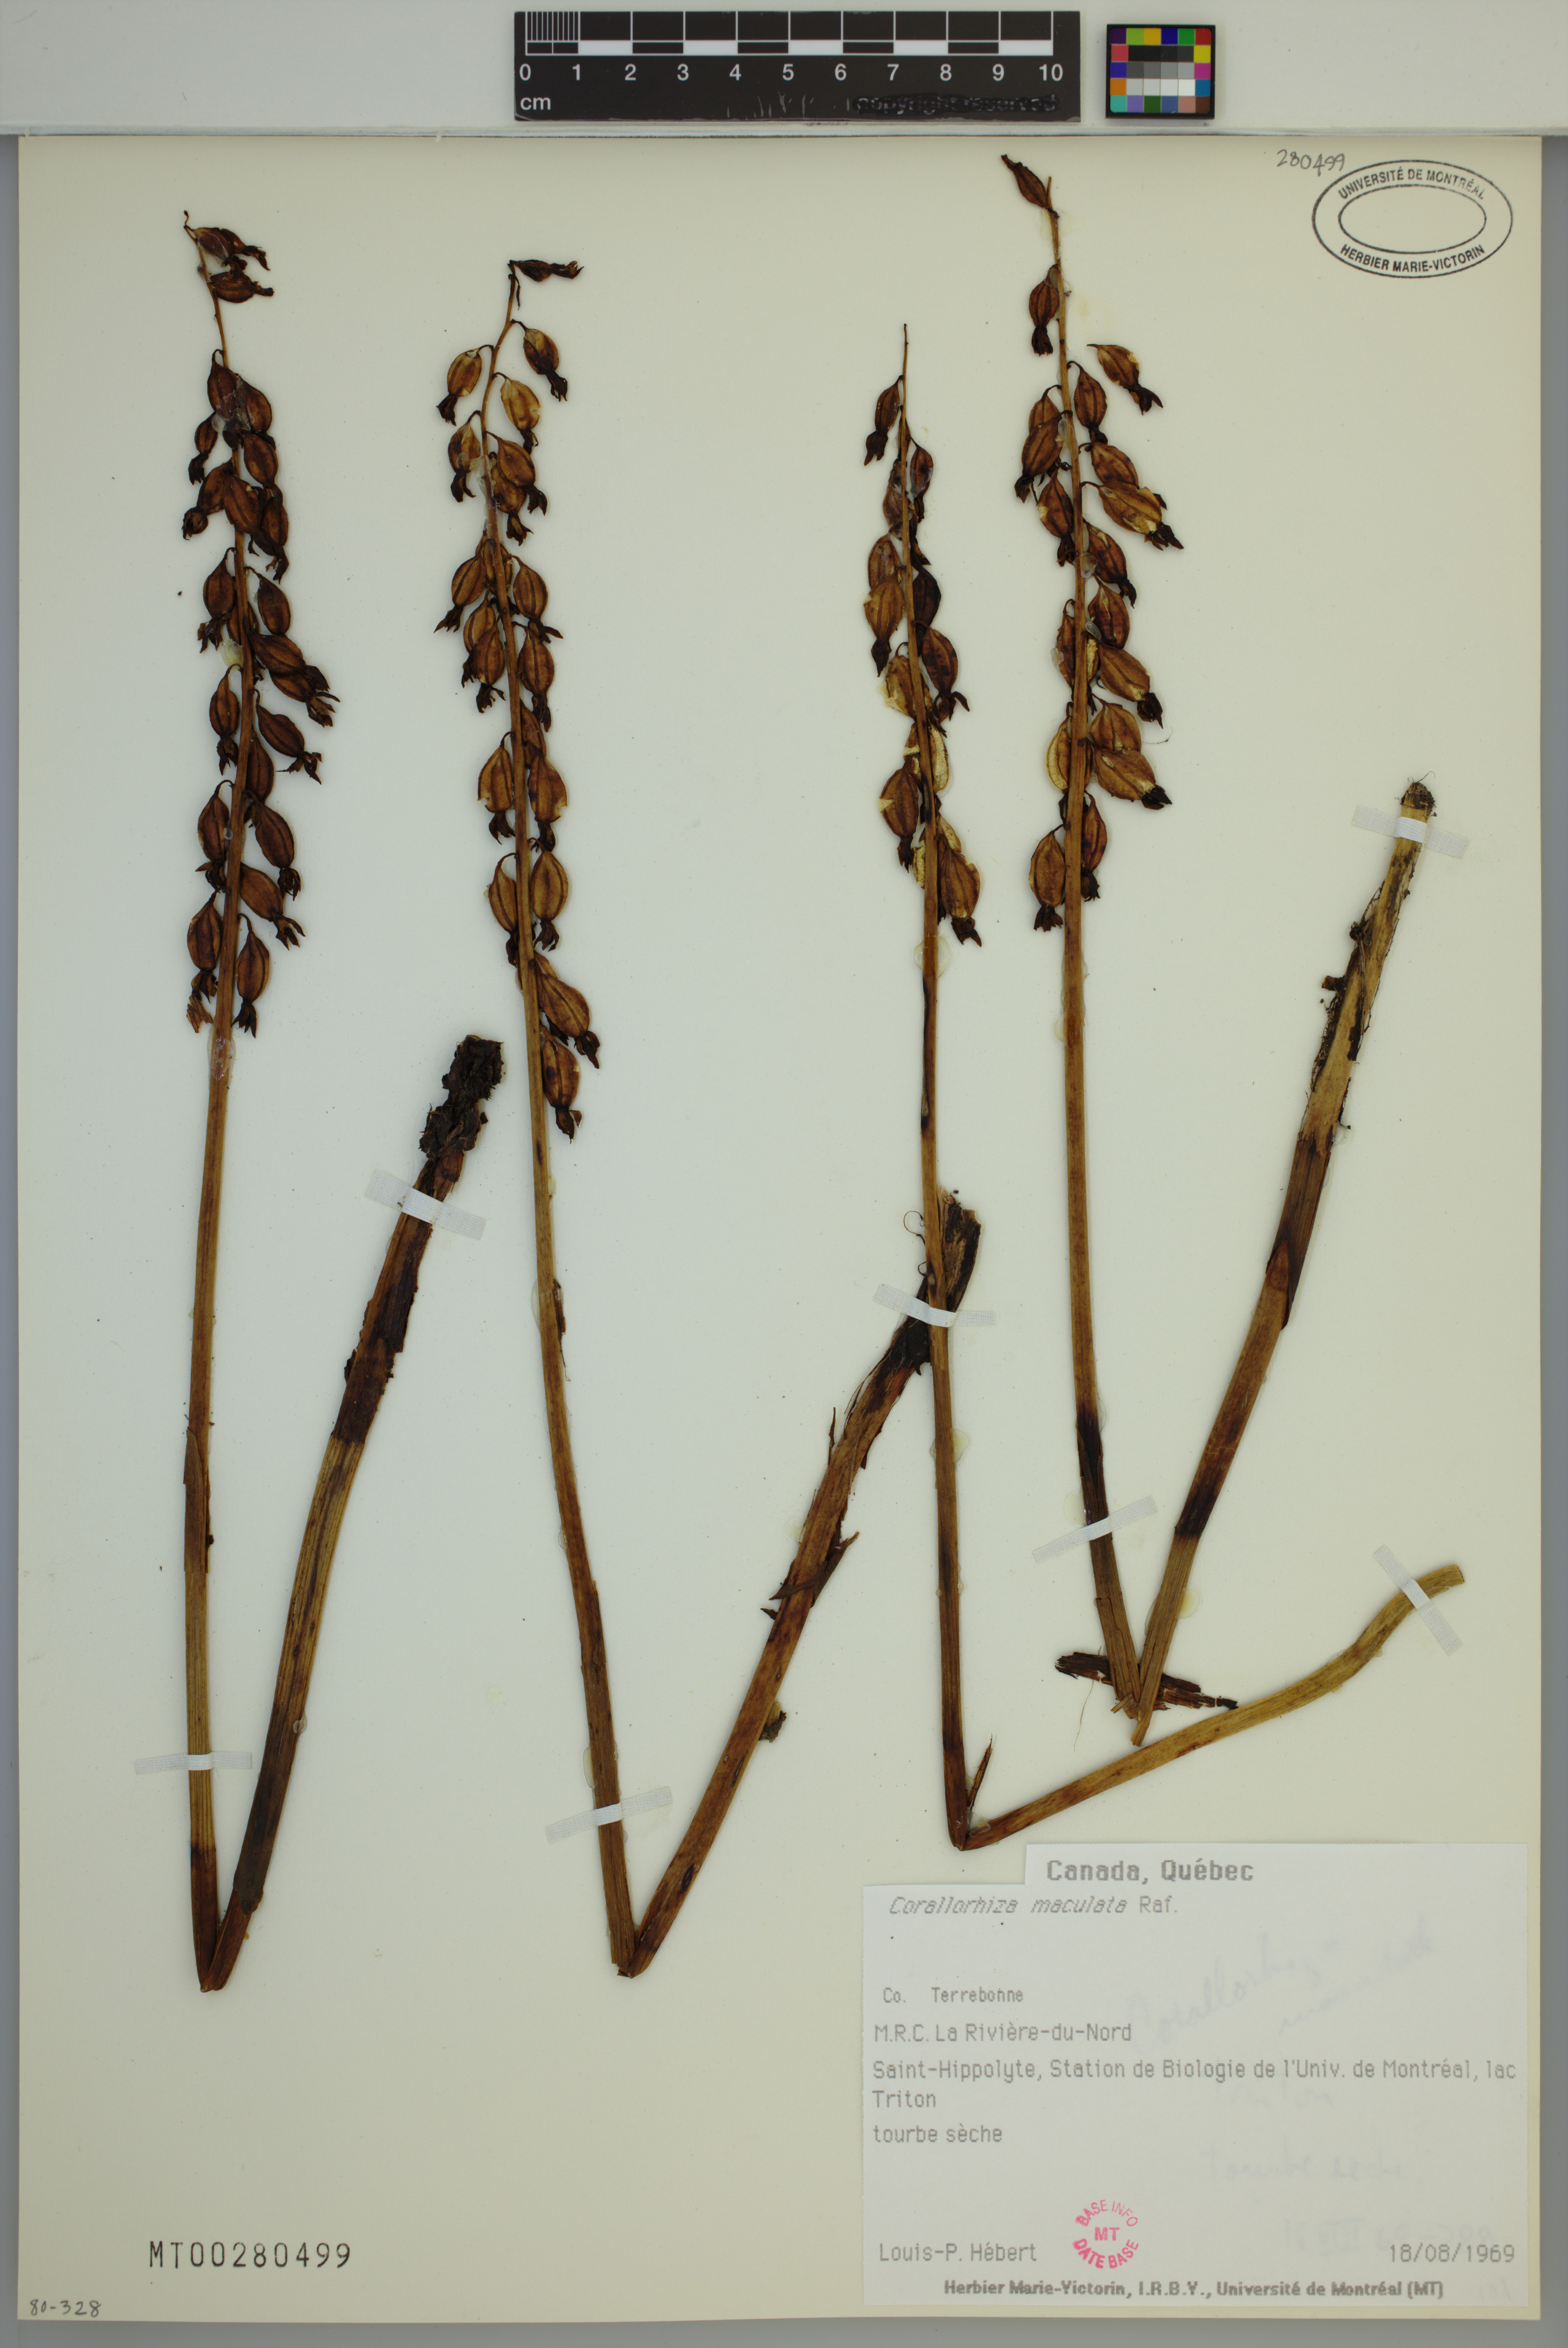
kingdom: Plantae
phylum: Tracheophyta
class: Liliopsida
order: Asparagales
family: Orchidaceae
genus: Corallorhiza
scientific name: Corallorhiza maculata
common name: Spotted coralroot
